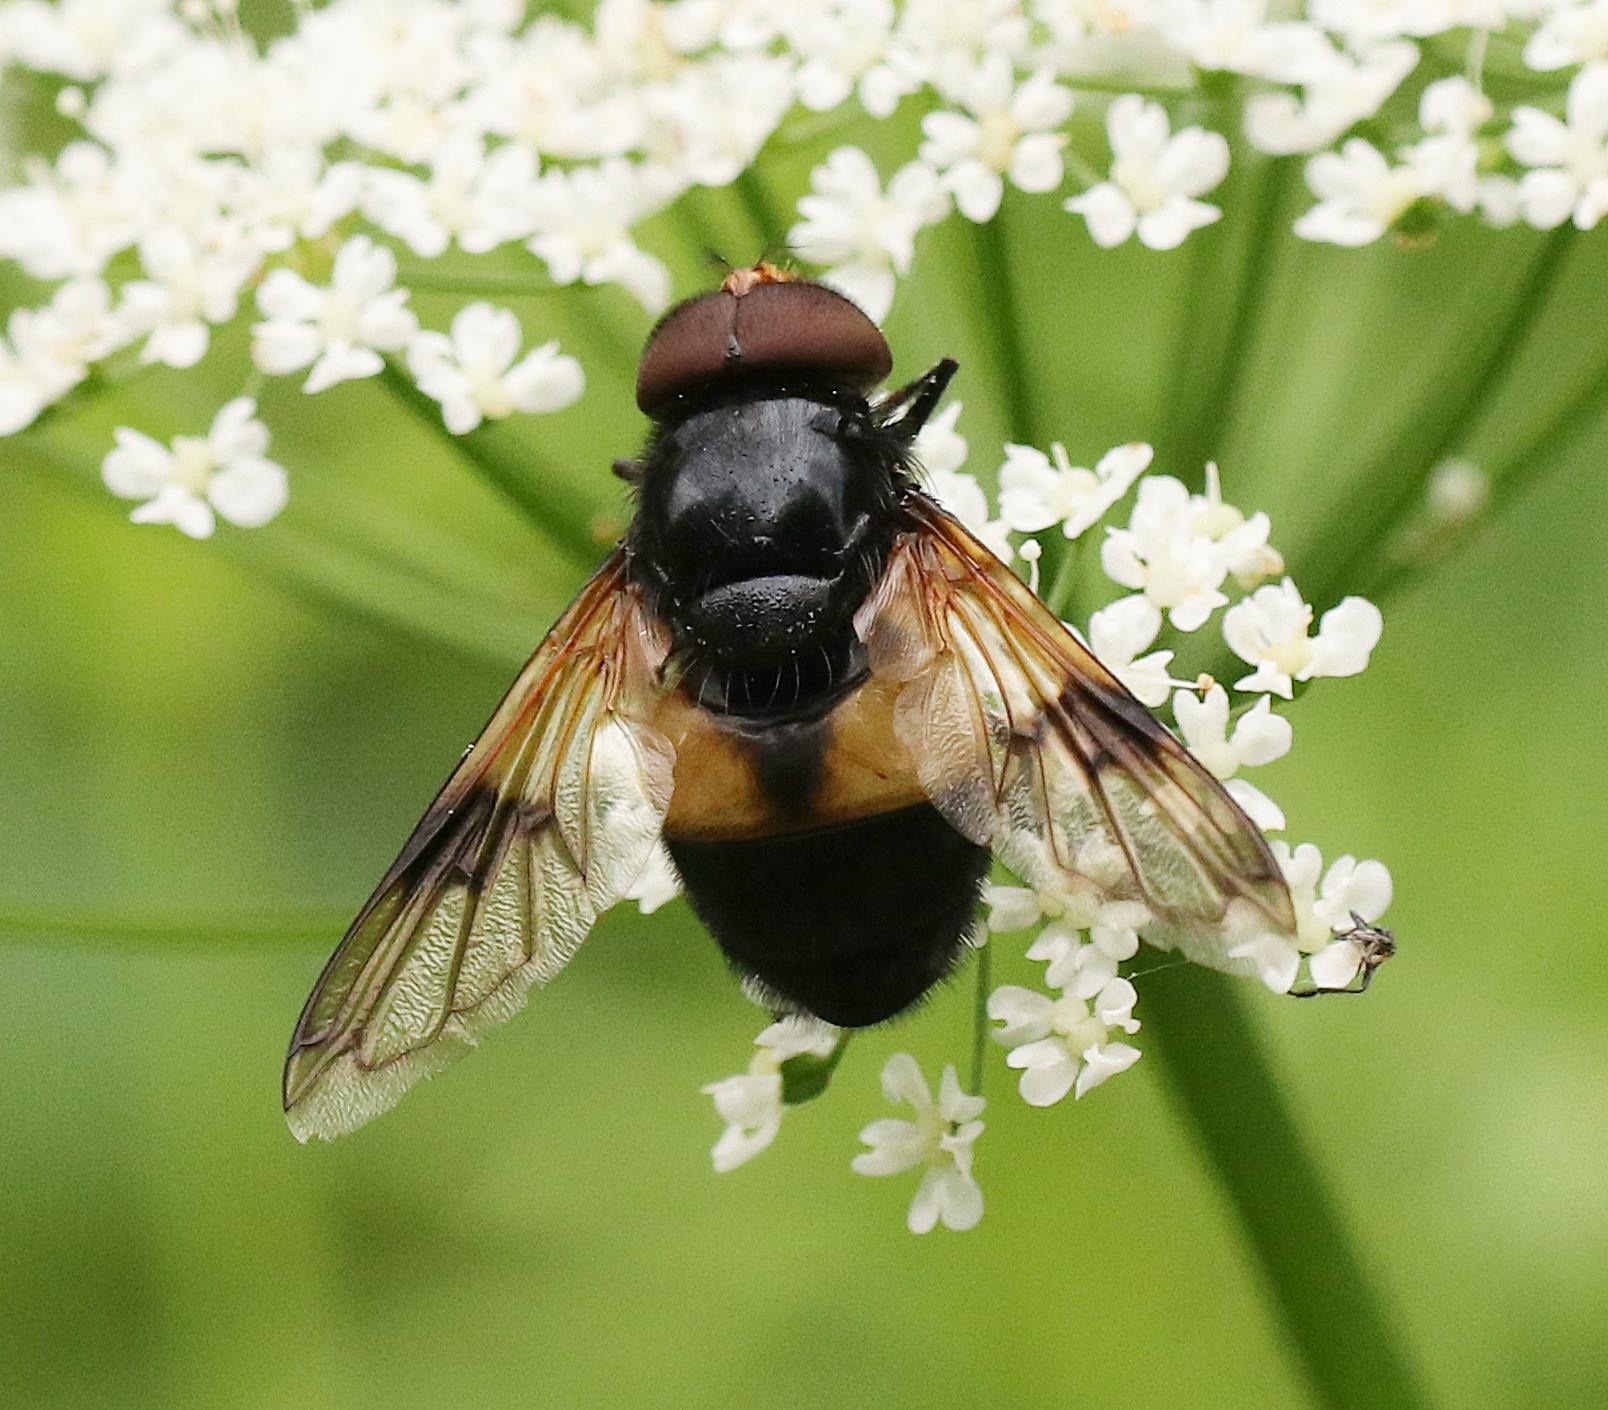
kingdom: Animalia
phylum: Arthropoda
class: Insecta
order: Diptera
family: Syrphidae
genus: Volucella
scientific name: Volucella pellucens
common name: Hvidbåndet humlesvirreflue
